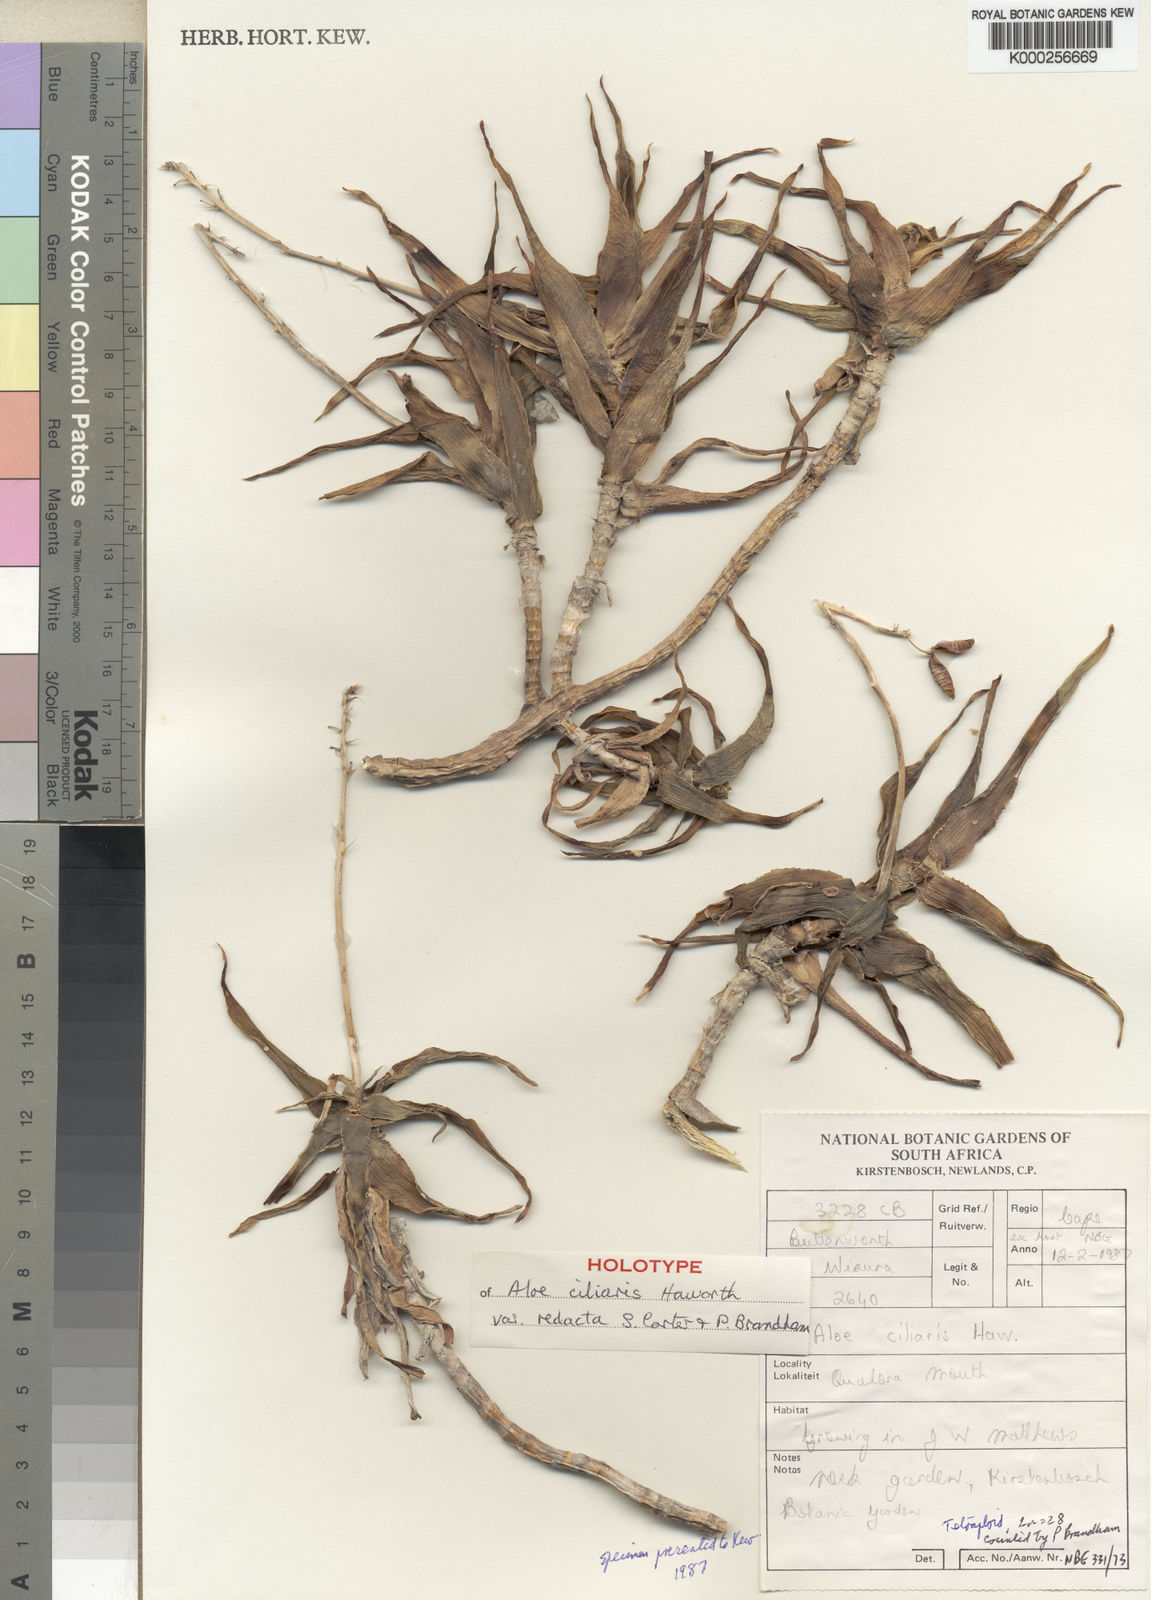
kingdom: Plantae
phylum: Tracheophyta
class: Liliopsida
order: Asparagales
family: Asphodelaceae
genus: Aloiampelos
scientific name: Aloiampelos ciliaris
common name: Climbing aloe
